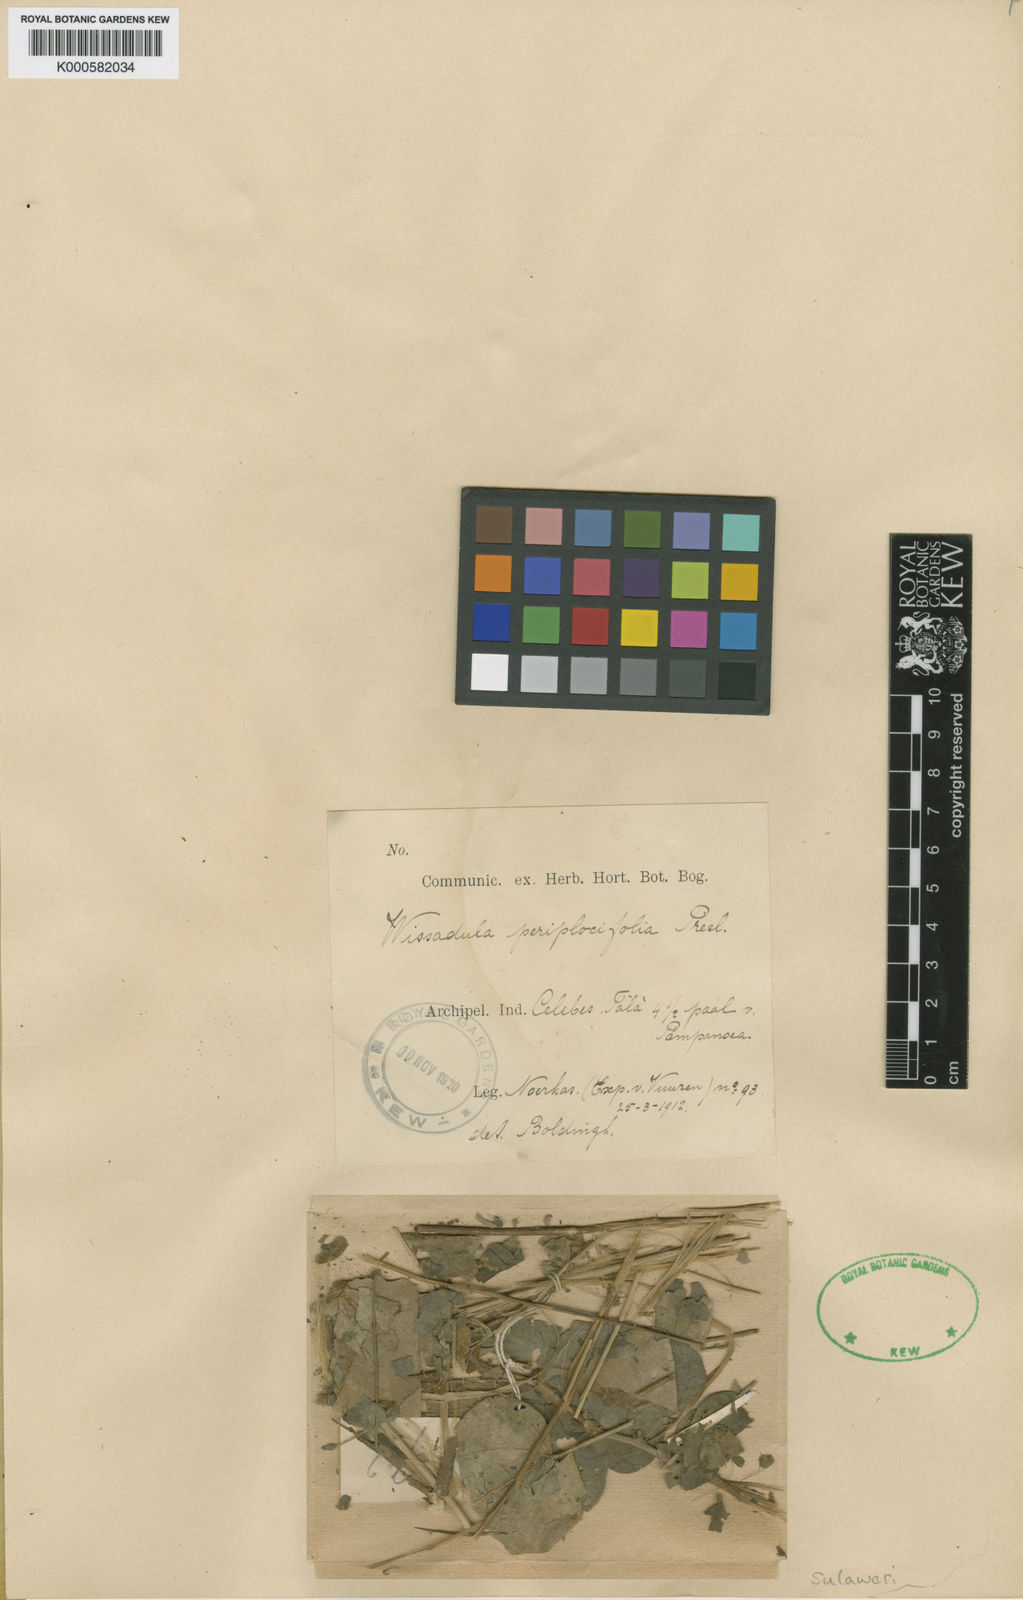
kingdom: Plantae
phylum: Tracheophyta
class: Magnoliopsida
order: Malvales
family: Malvaceae
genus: Wissadula
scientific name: Wissadula periplocifolia
